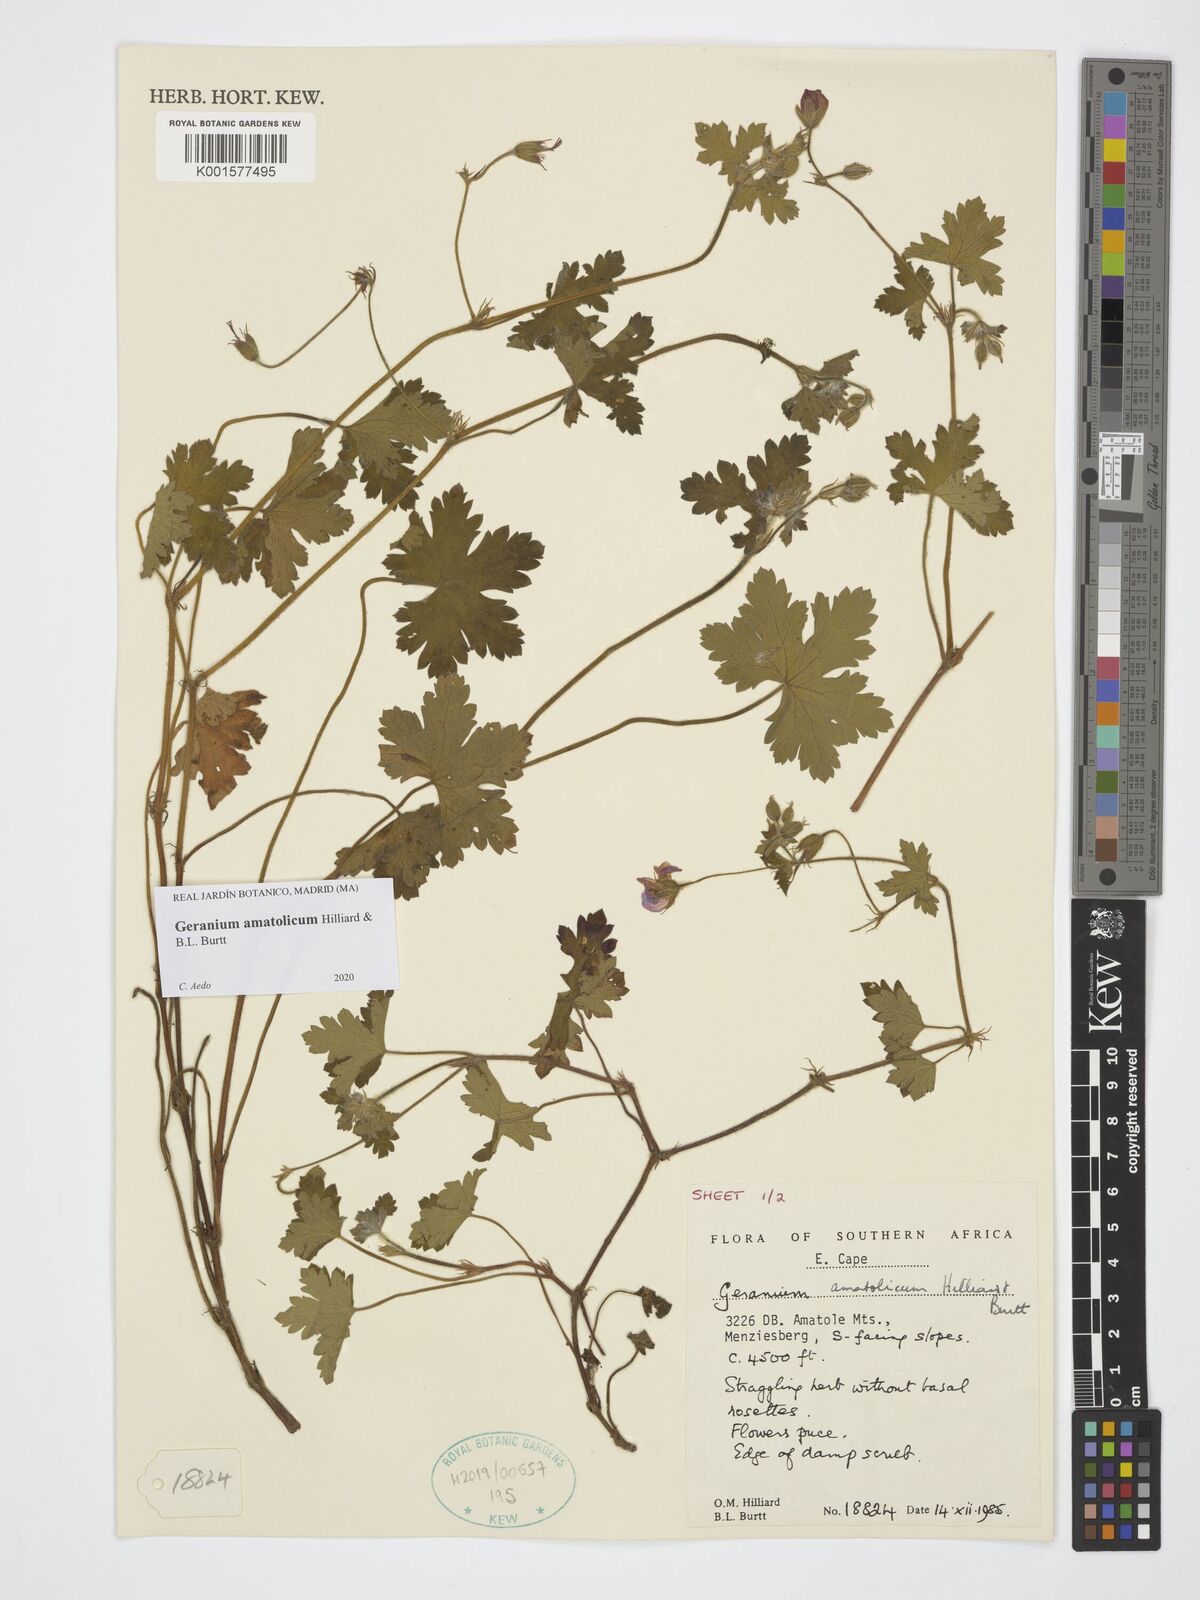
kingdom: Plantae
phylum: Tracheophyta
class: Magnoliopsida
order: Geraniales
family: Geraniaceae
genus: Geranium
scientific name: Geranium amatolicum
